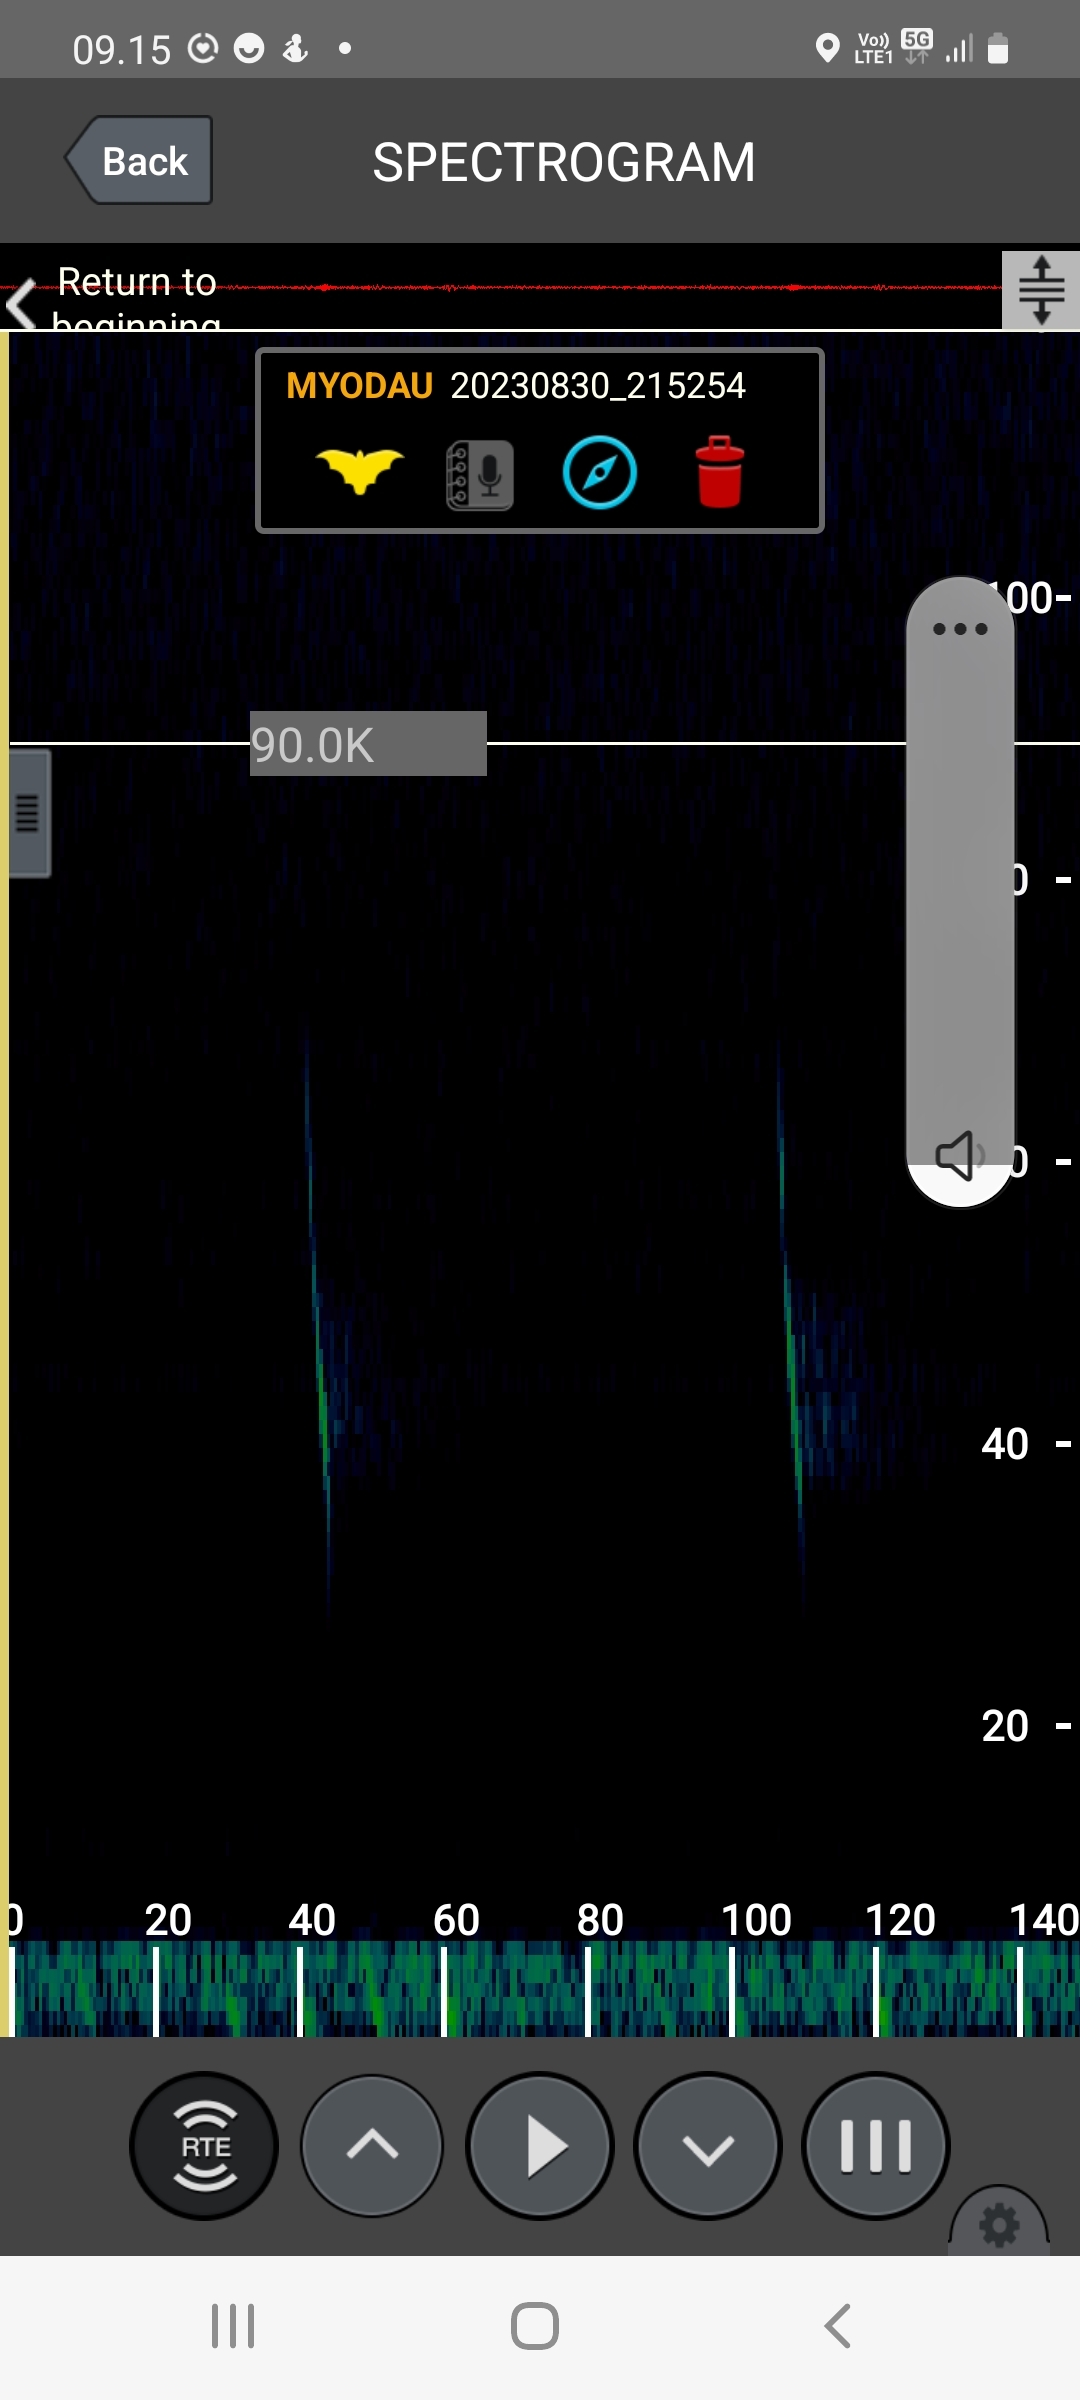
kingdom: Animalia
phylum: Chordata
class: Mammalia
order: Chiroptera
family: Vespertilionidae
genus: Myotis
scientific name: Myotis daubentonii
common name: Vandflagermus
